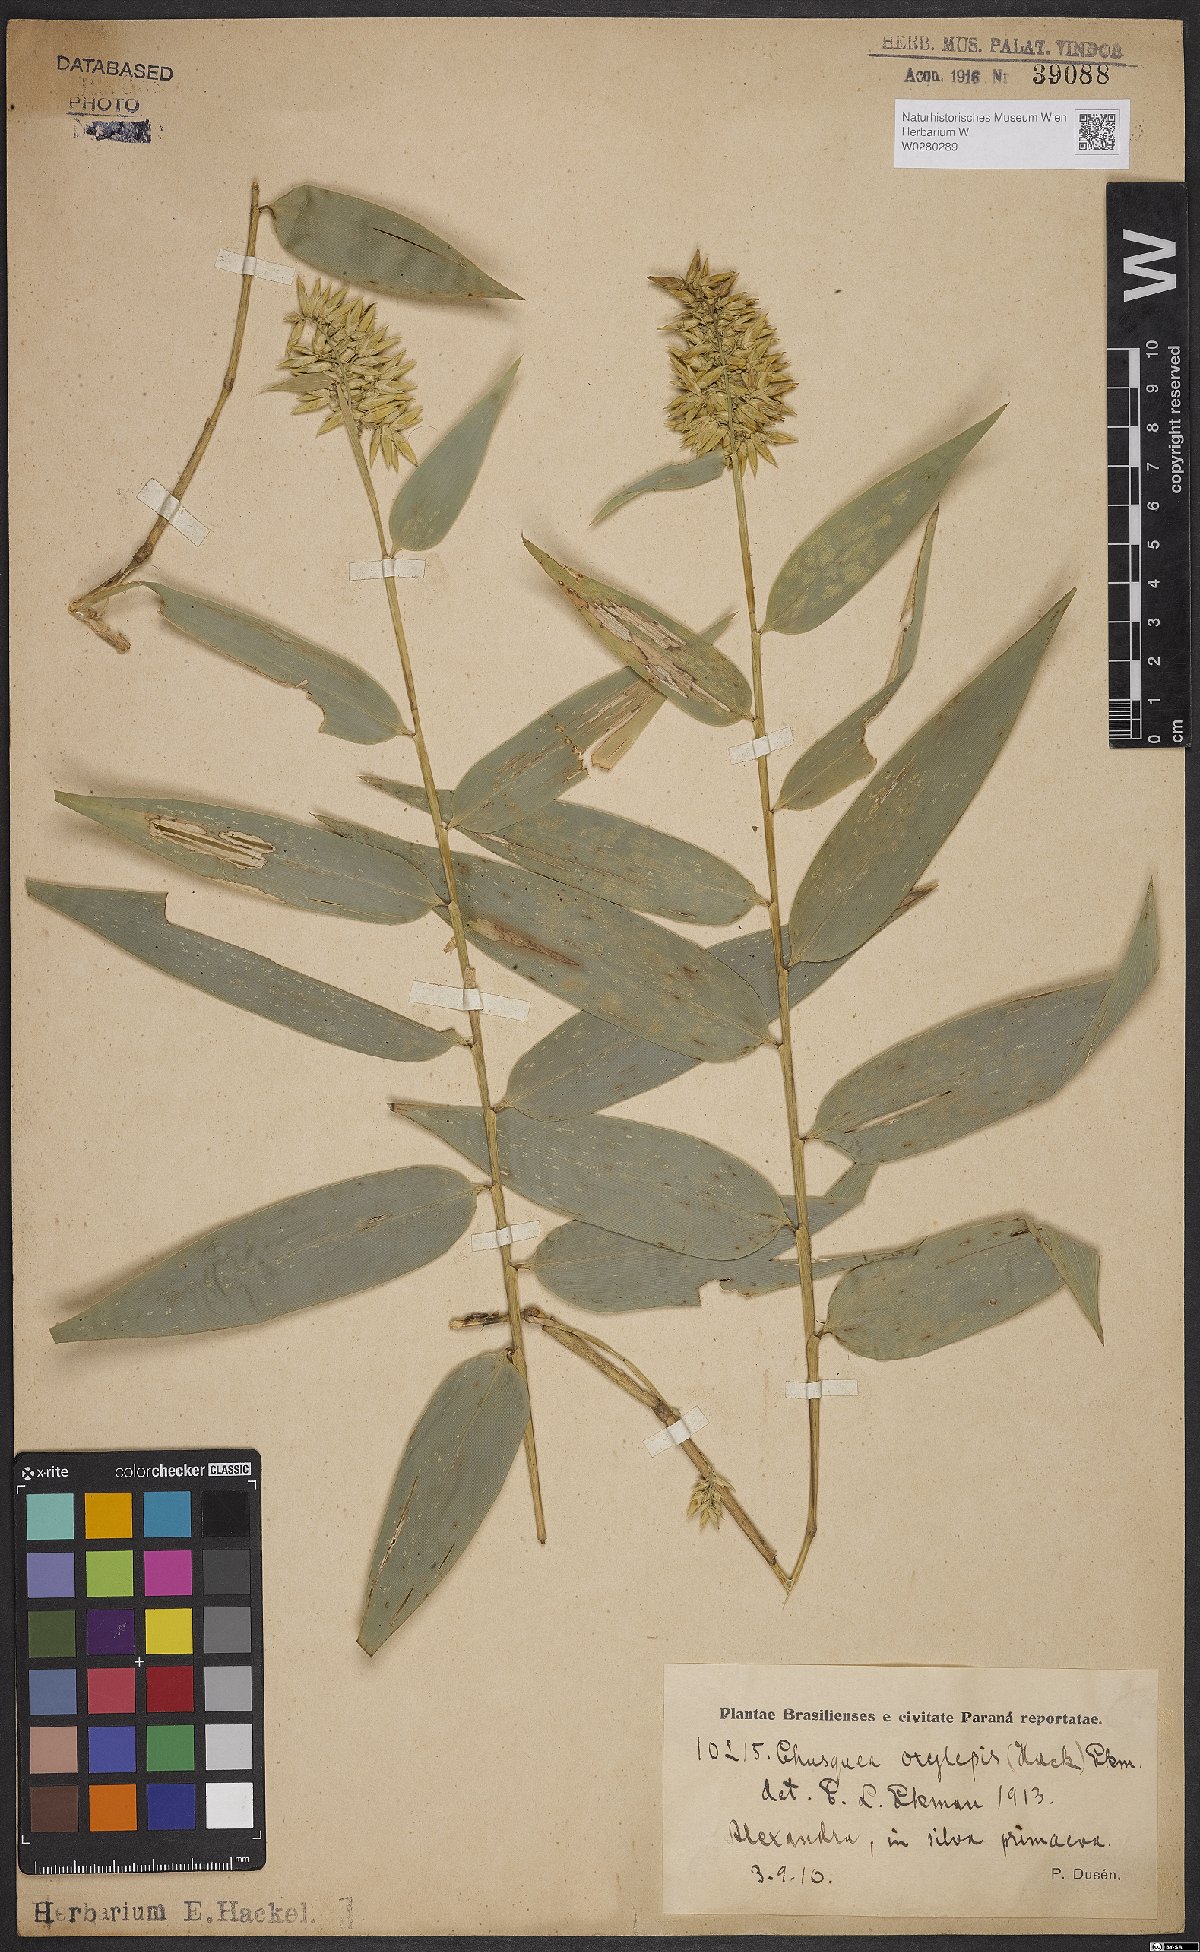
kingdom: Plantae
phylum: Tracheophyta
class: Liliopsida
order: Poales
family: Poaceae
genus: Chusquea
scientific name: Chusquea oxylepis
